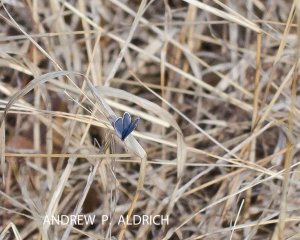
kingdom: Animalia
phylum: Arthropoda
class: Insecta
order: Lepidoptera
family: Lycaenidae
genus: Celastrina
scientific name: Celastrina ladon
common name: Spring Azure
